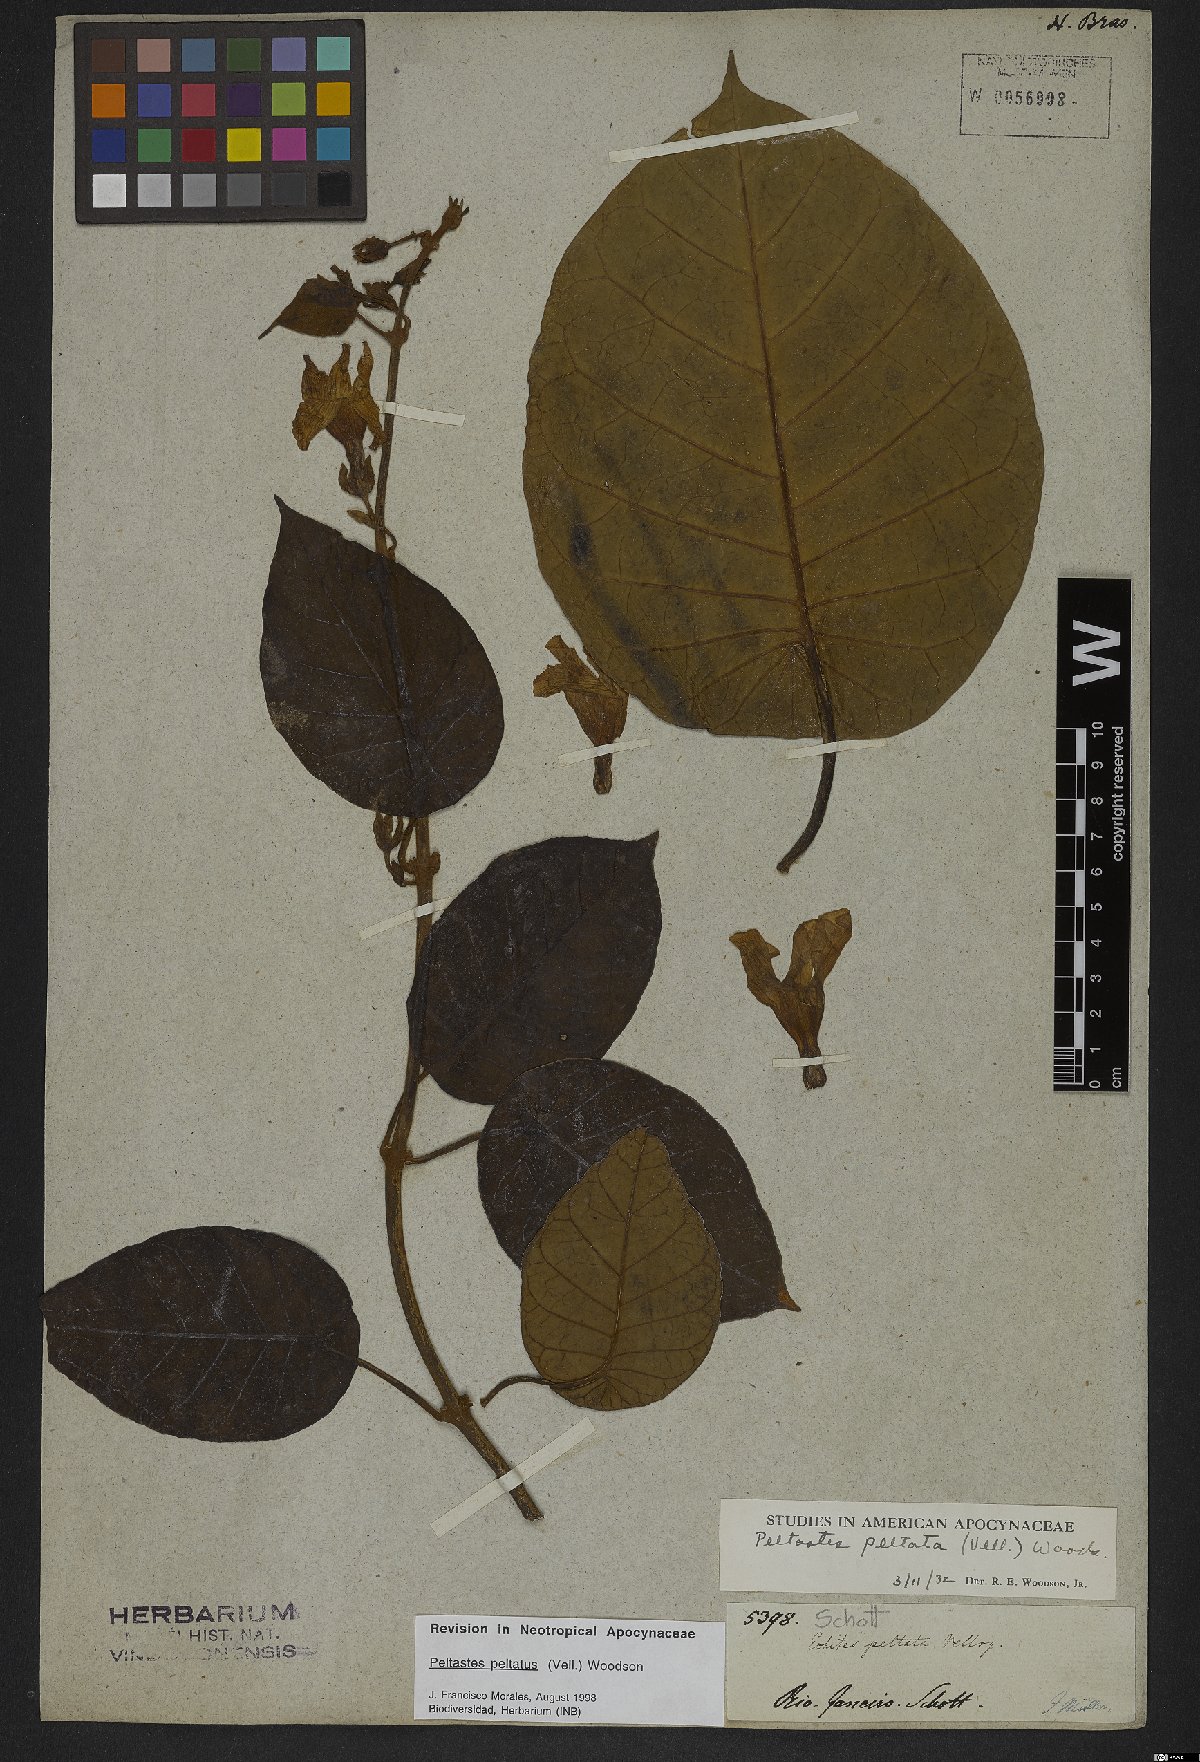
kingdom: Plantae
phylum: Tracheophyta
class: Magnoliopsida
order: Gentianales
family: Apocynaceae
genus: Macropharynx
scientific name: Macropharynx peltata
